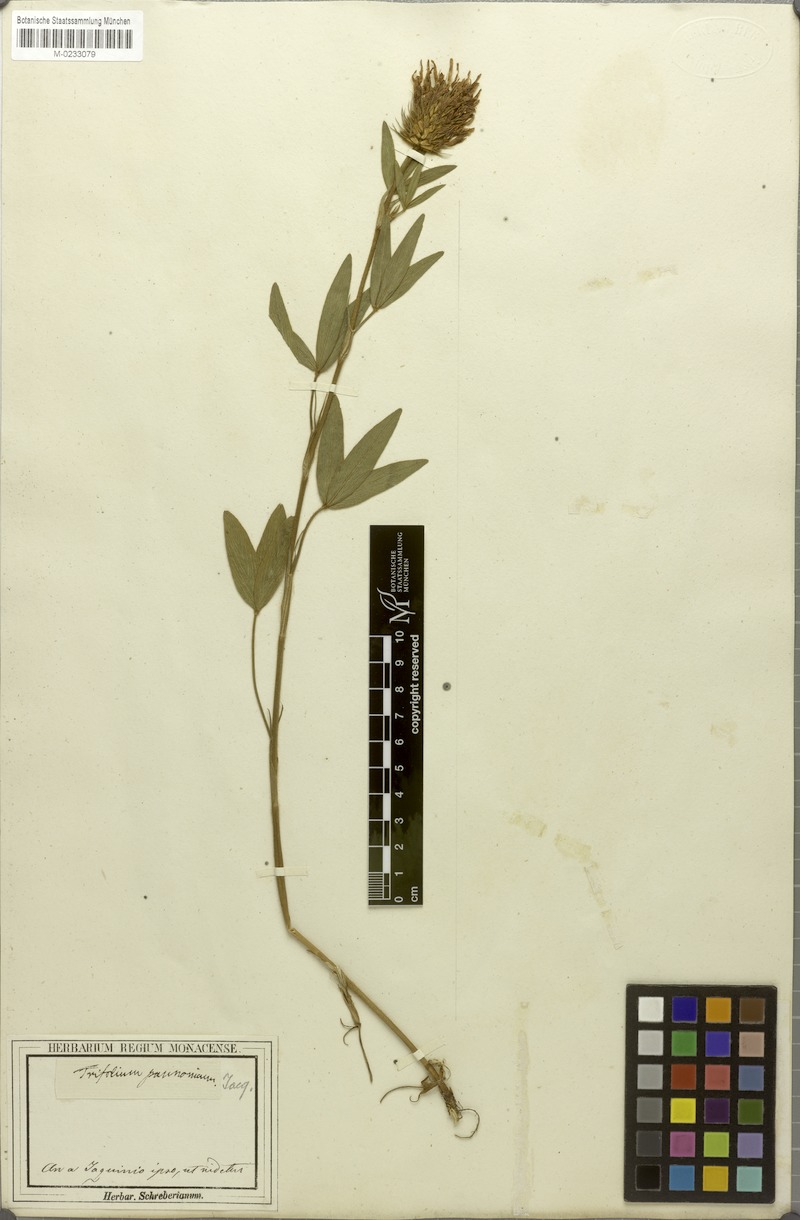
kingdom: Plantae
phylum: Tracheophyta
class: Magnoliopsida
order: Fabales
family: Fabaceae
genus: Trifolium
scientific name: Trifolium pannonicum
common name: Hungarian clover
